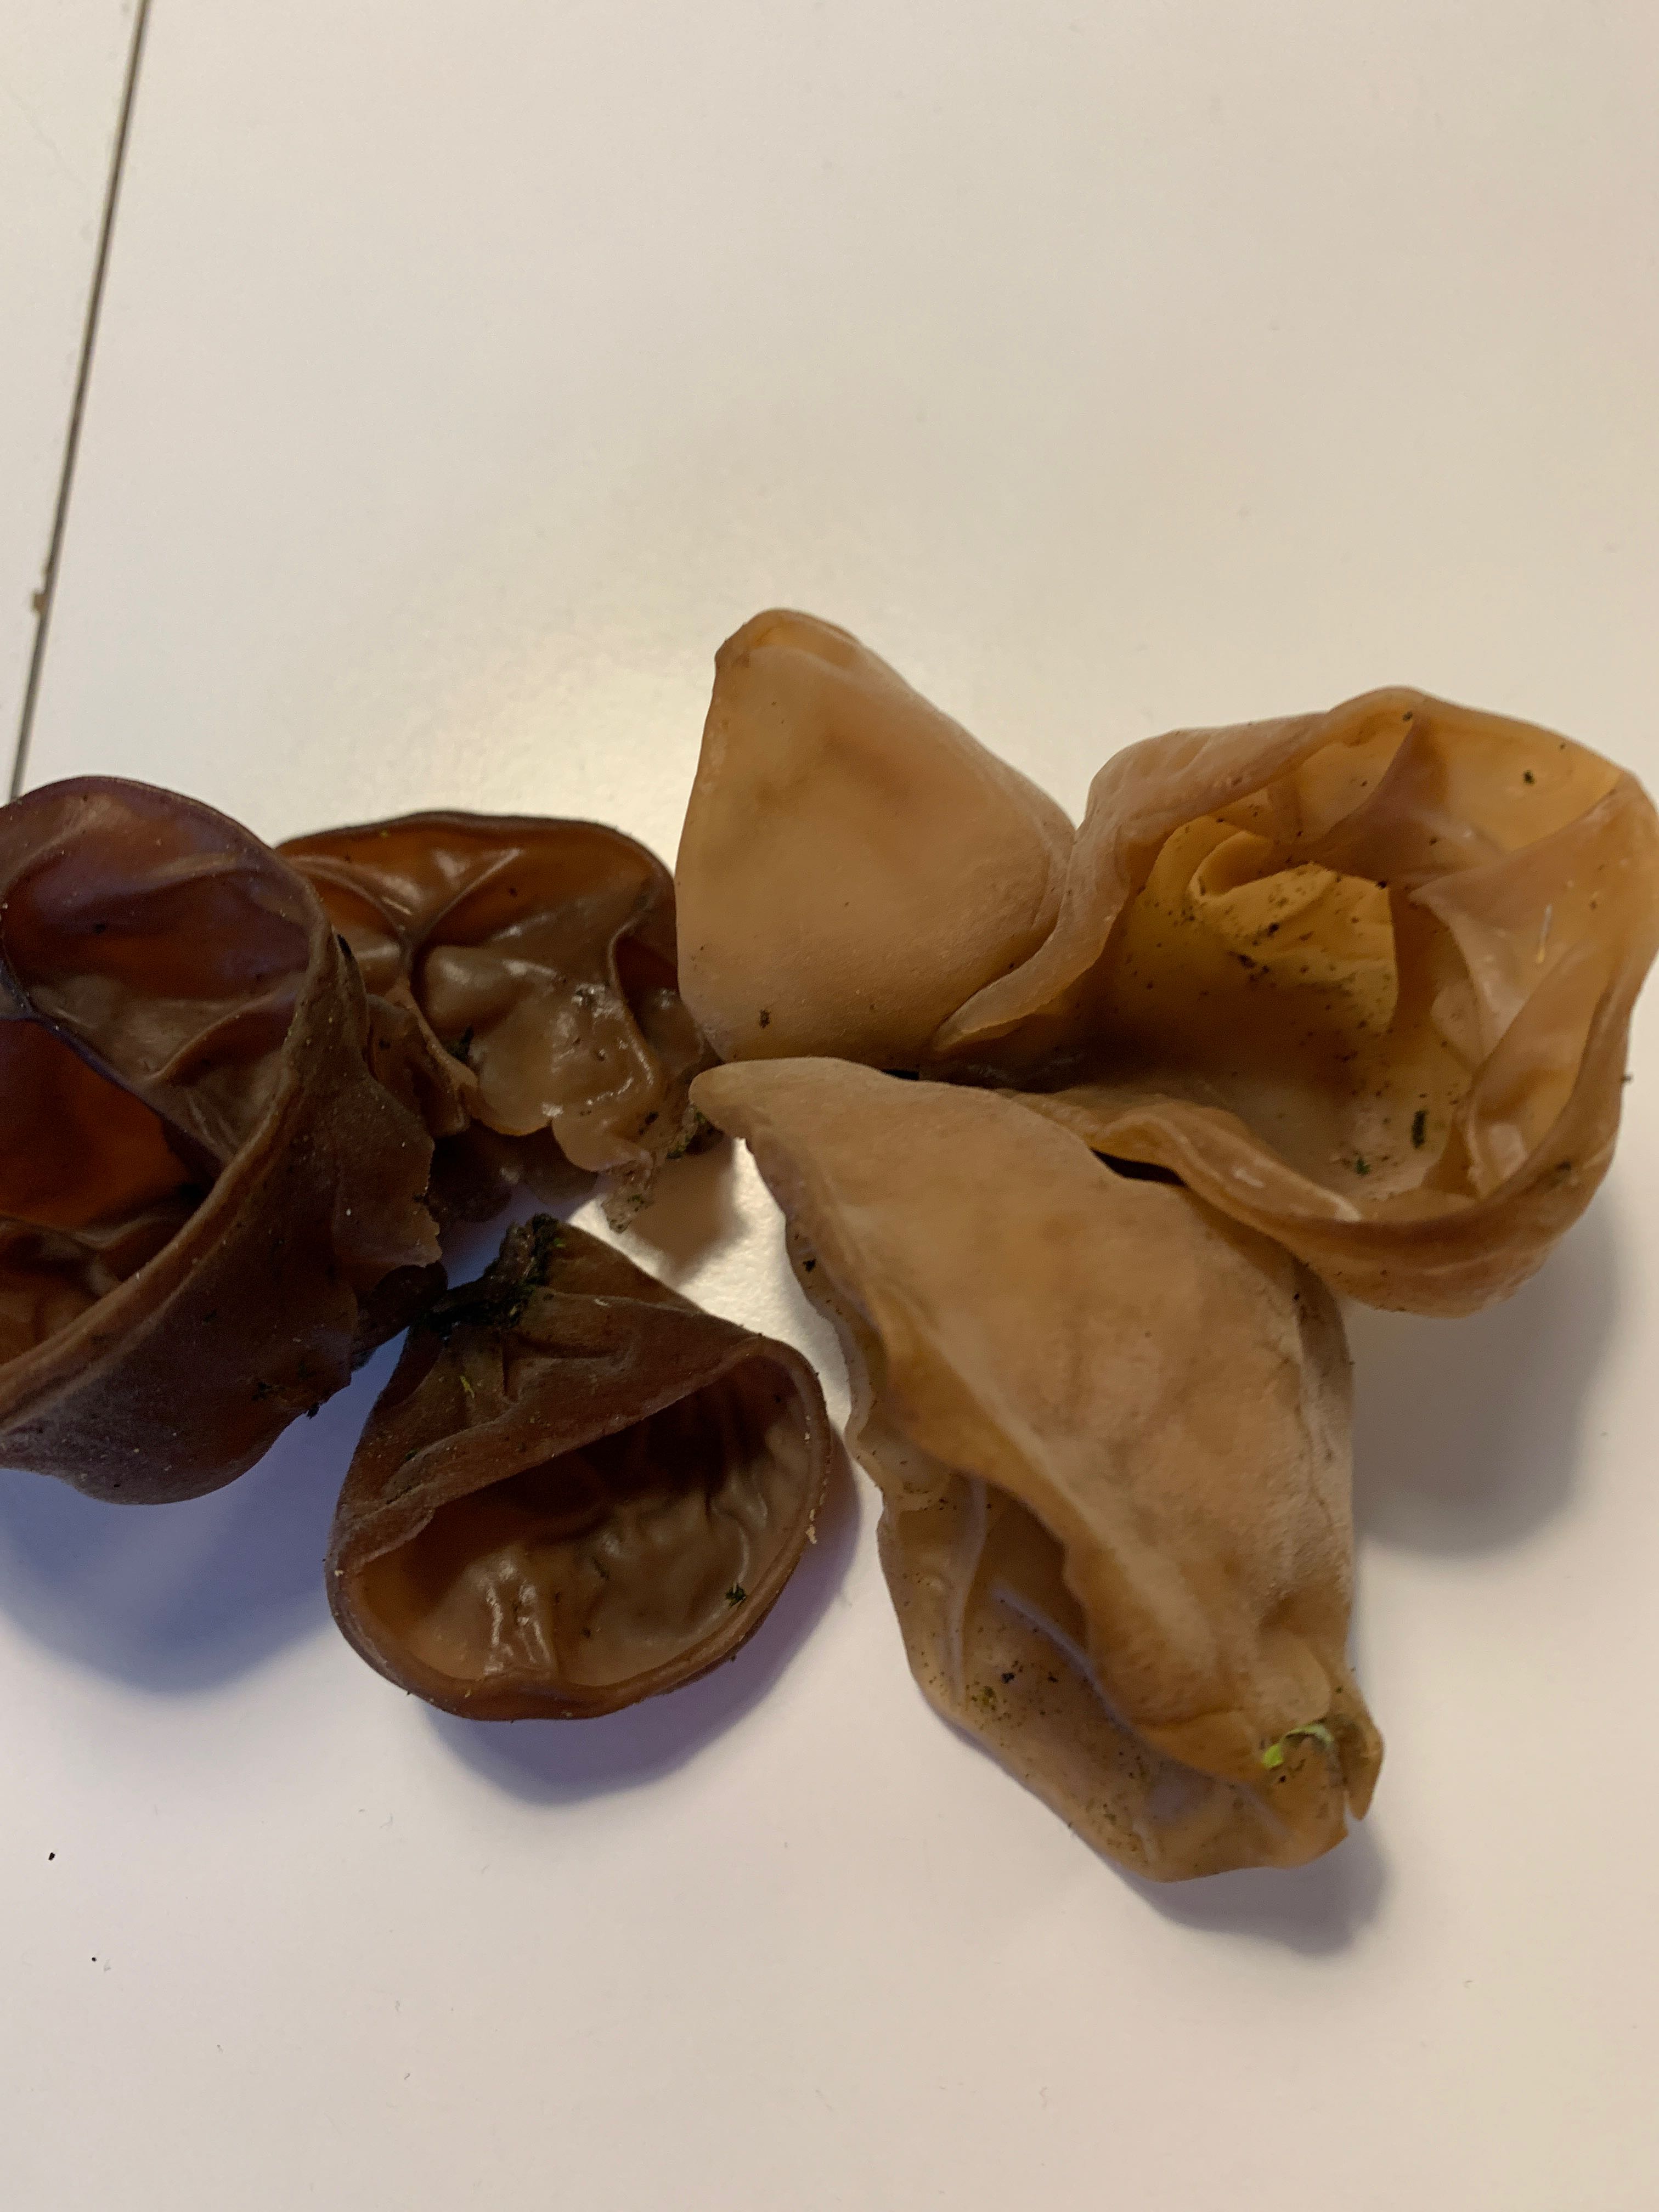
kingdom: Fungi
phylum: Basidiomycota
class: Agaricomycetes
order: Auriculariales
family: Auriculariaceae
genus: Auricularia
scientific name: Auricularia auricula-judae
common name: almindelig judasøre
